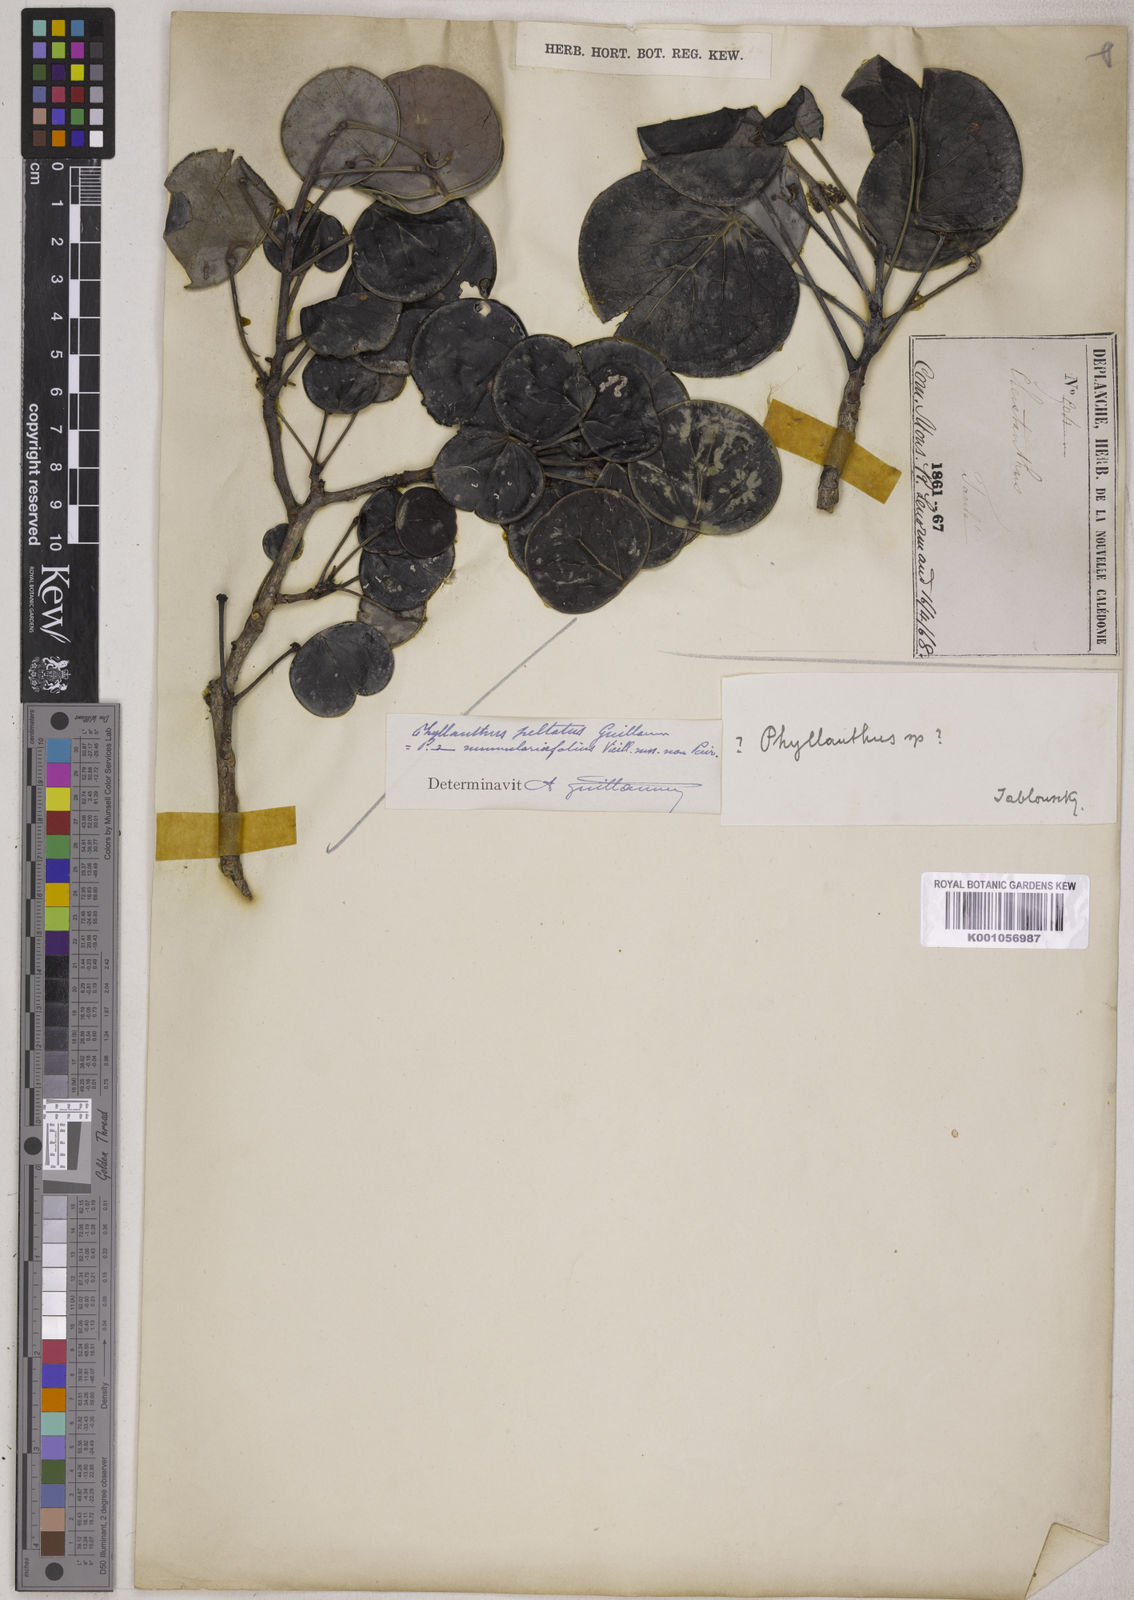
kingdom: Plantae
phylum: Tracheophyta
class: Magnoliopsida
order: Malpighiales
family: Phyllanthaceae
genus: Phyllanthus
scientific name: Phyllanthus peltatus
